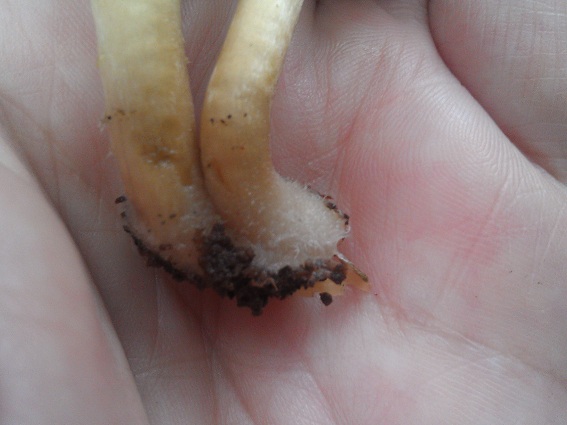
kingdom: Fungi
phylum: Basidiomycota
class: Agaricomycetes
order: Agaricales
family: Psathyrellaceae
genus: Psathyrella
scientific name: Psathyrella piluliformis
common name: lysstokket mørkhat
